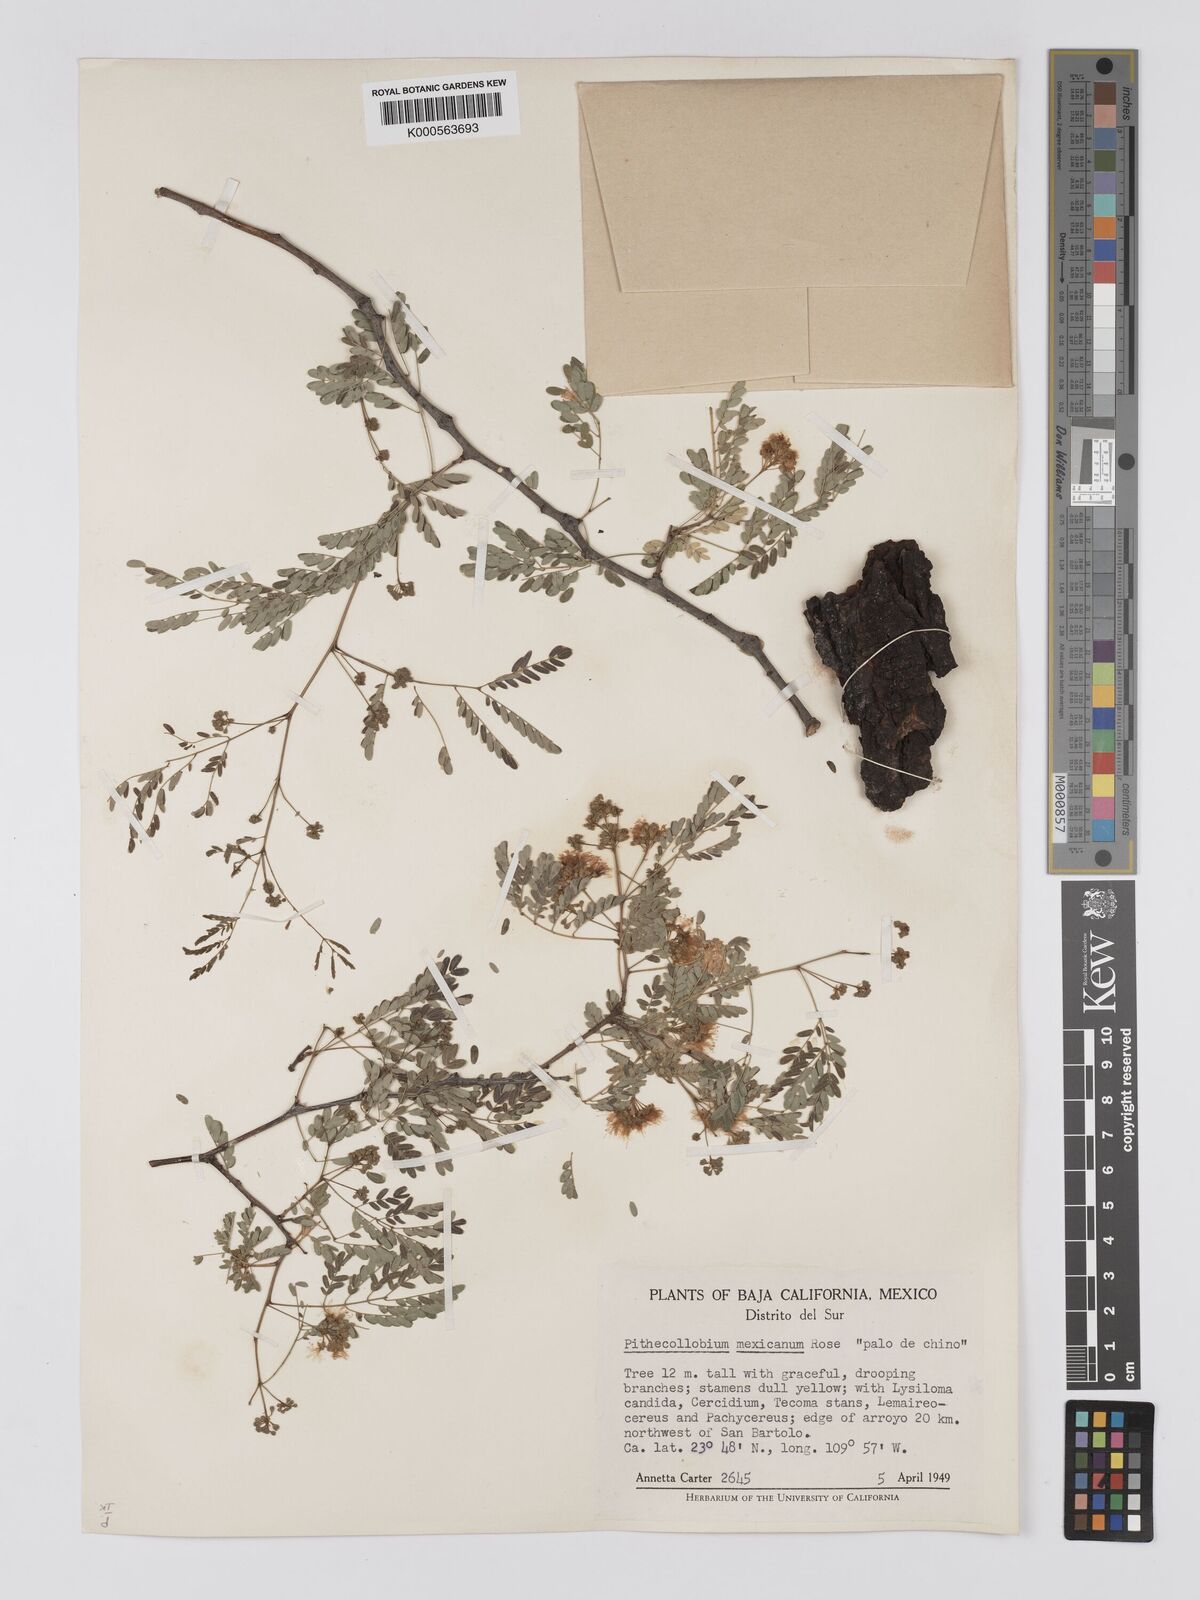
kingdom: Plantae
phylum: Tracheophyta
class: Magnoliopsida
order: Fabales
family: Fabaceae
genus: Havardia
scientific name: Havardia mexicana
